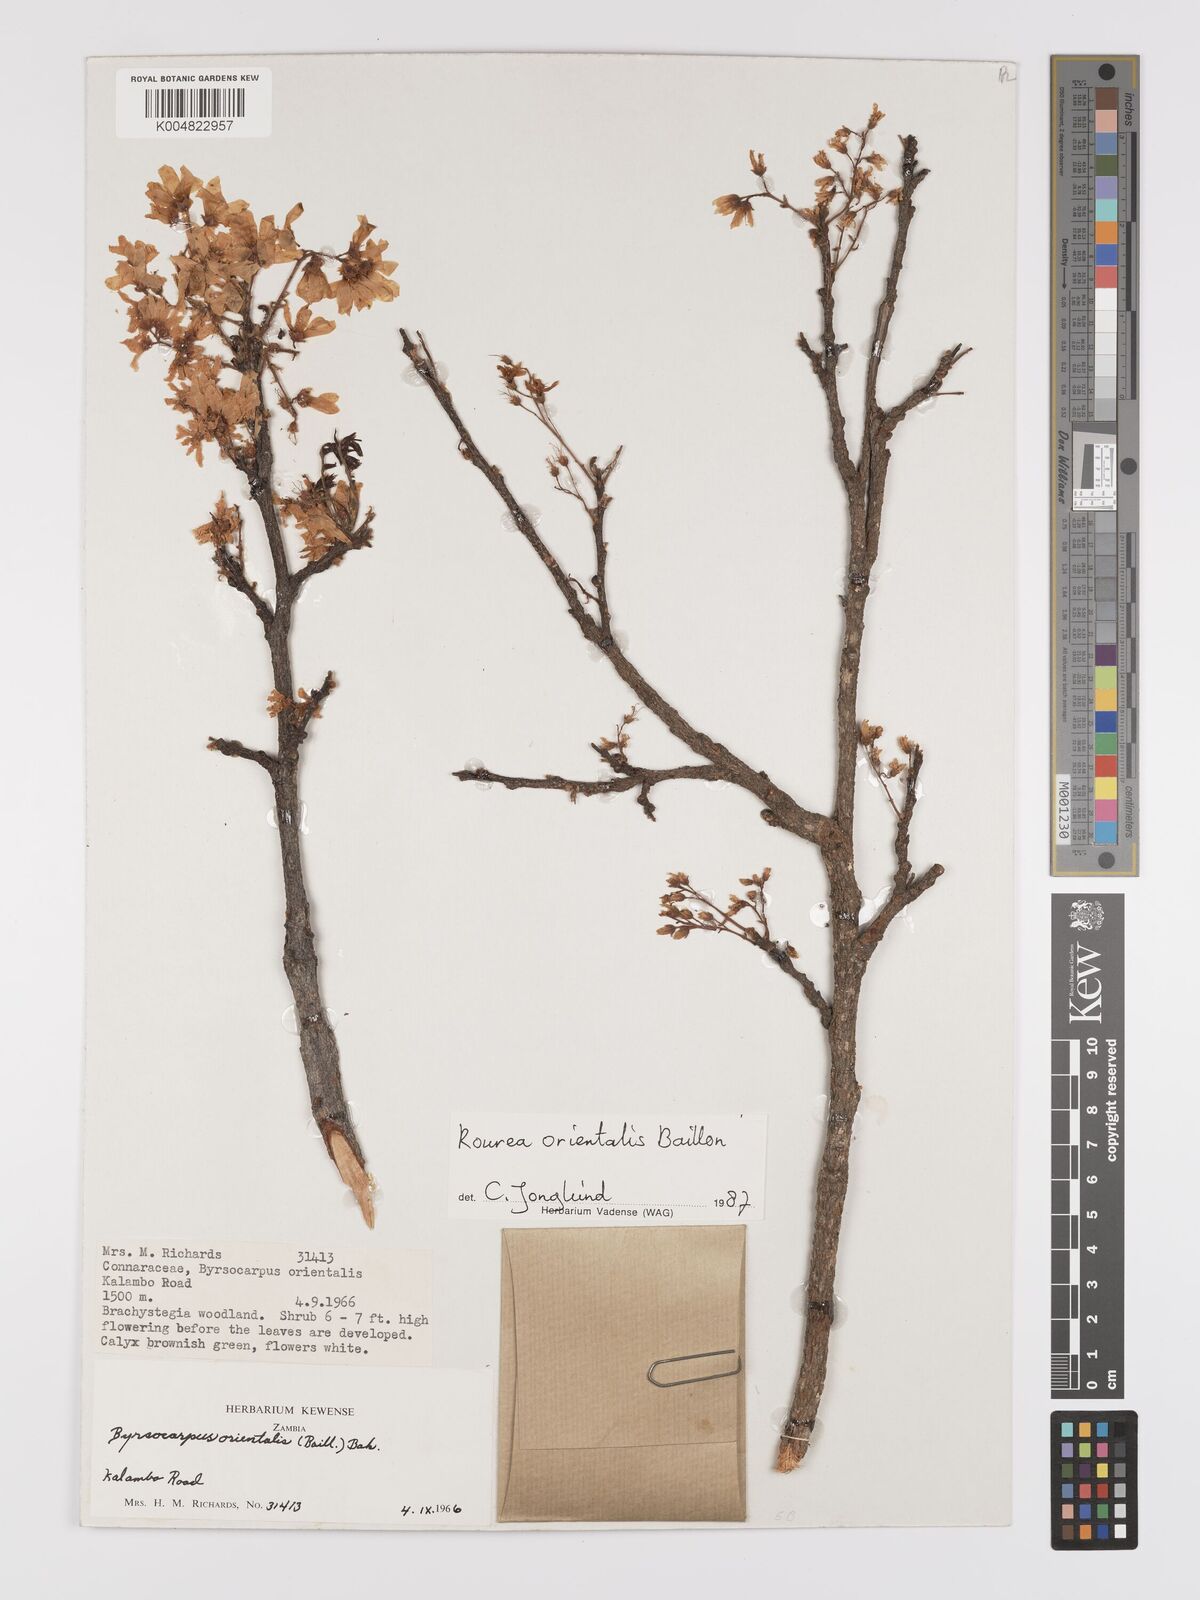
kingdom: Plantae
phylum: Tracheophyta
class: Magnoliopsida
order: Oxalidales
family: Connaraceae
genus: Rourea
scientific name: Rourea orientalis
